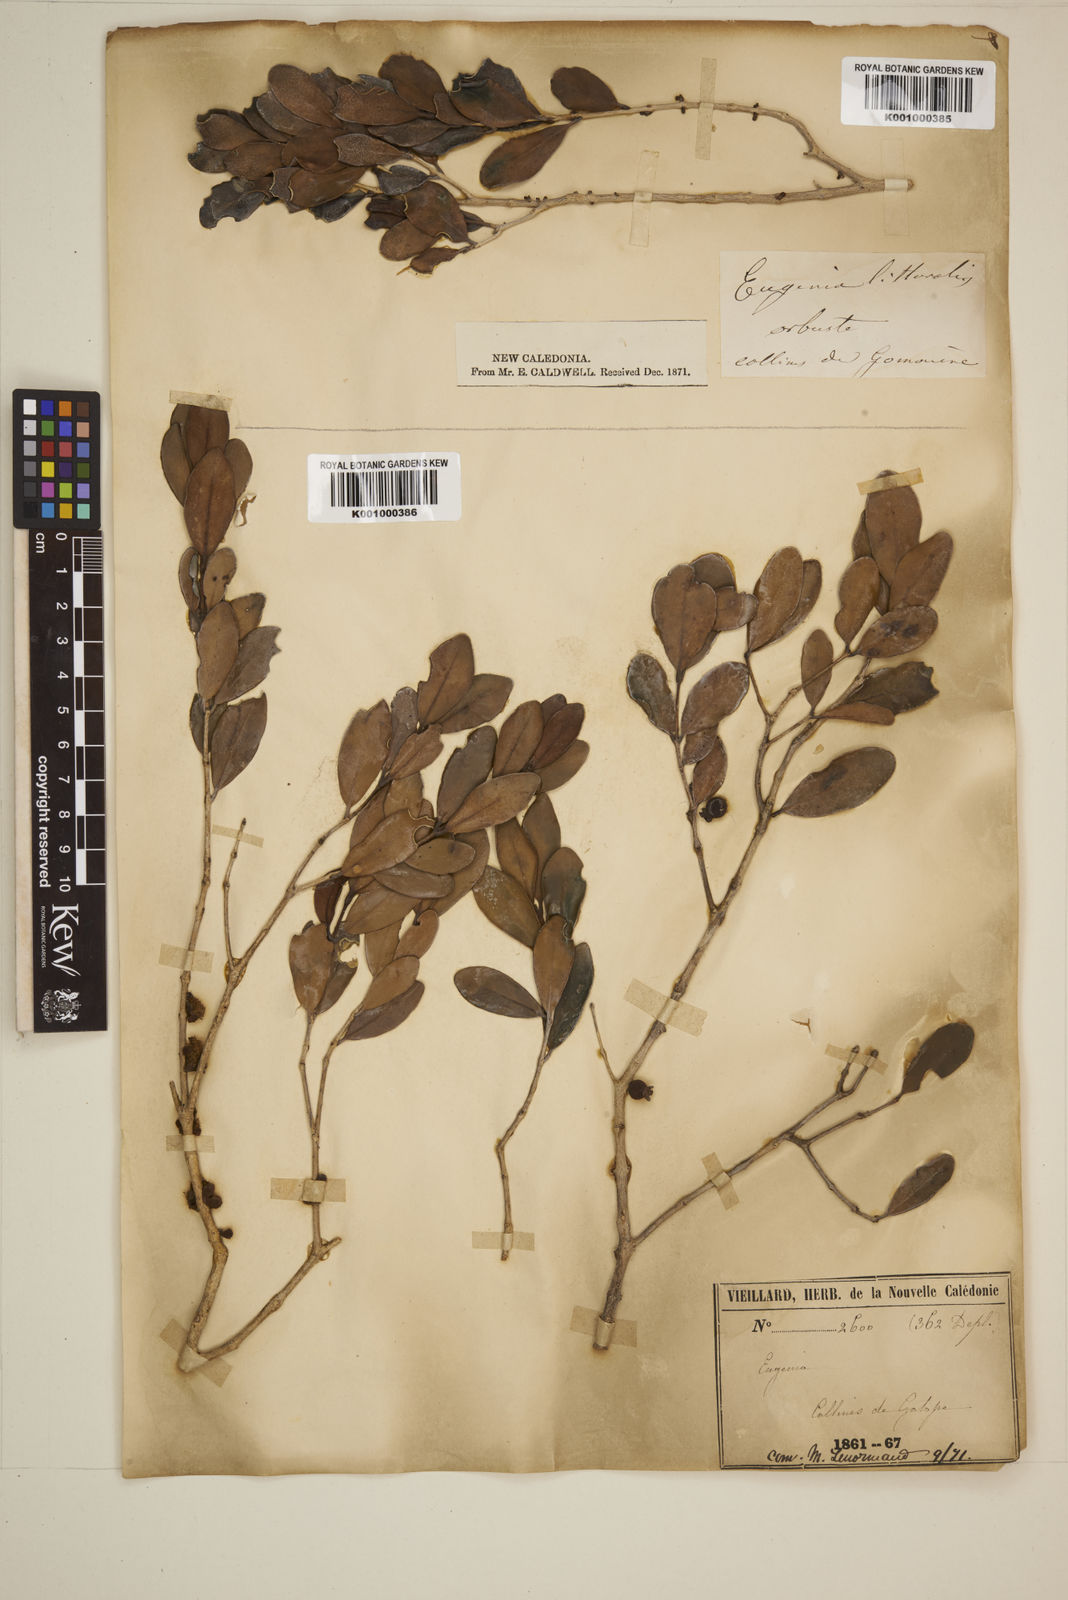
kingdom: Plantae
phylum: Tracheophyta
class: Magnoliopsida
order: Myrtales
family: Myrtaceae
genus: Eugenia
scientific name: Eugenia littoralis
